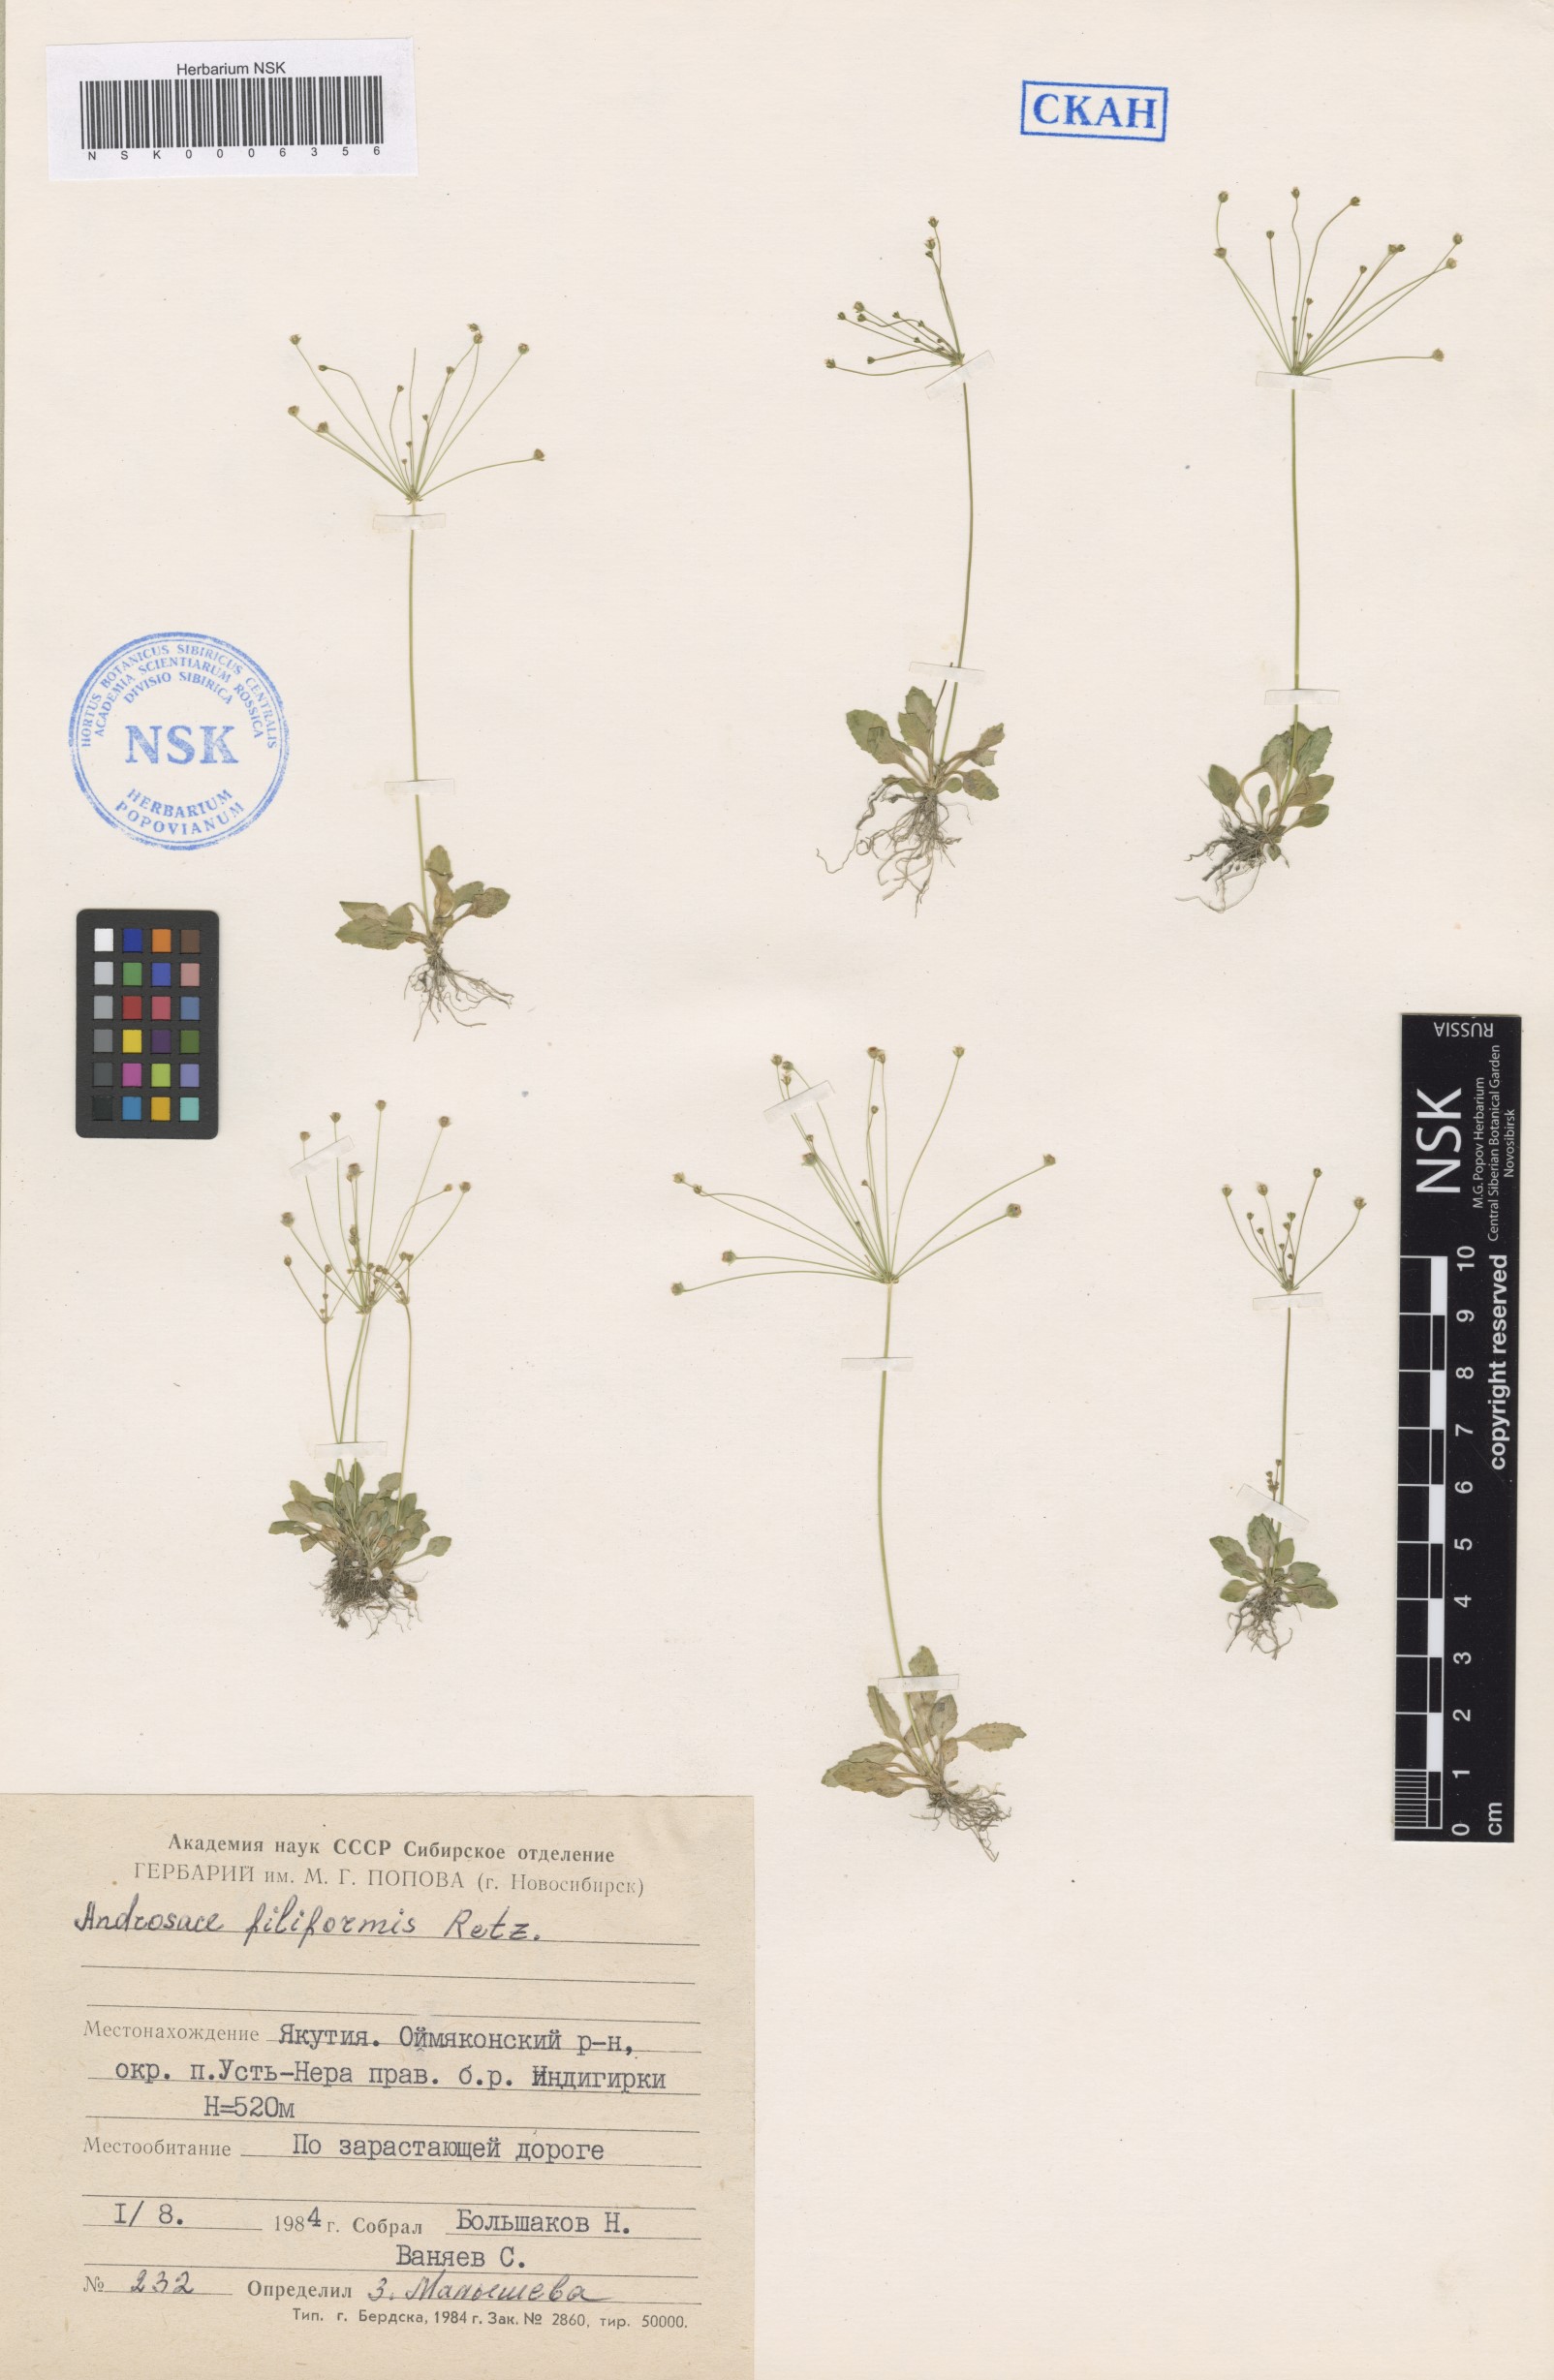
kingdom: Plantae
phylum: Tracheophyta
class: Magnoliopsida
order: Ericales
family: Primulaceae
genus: Androsace
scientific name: Androsace filiformis
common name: Filiform rock jasmine
